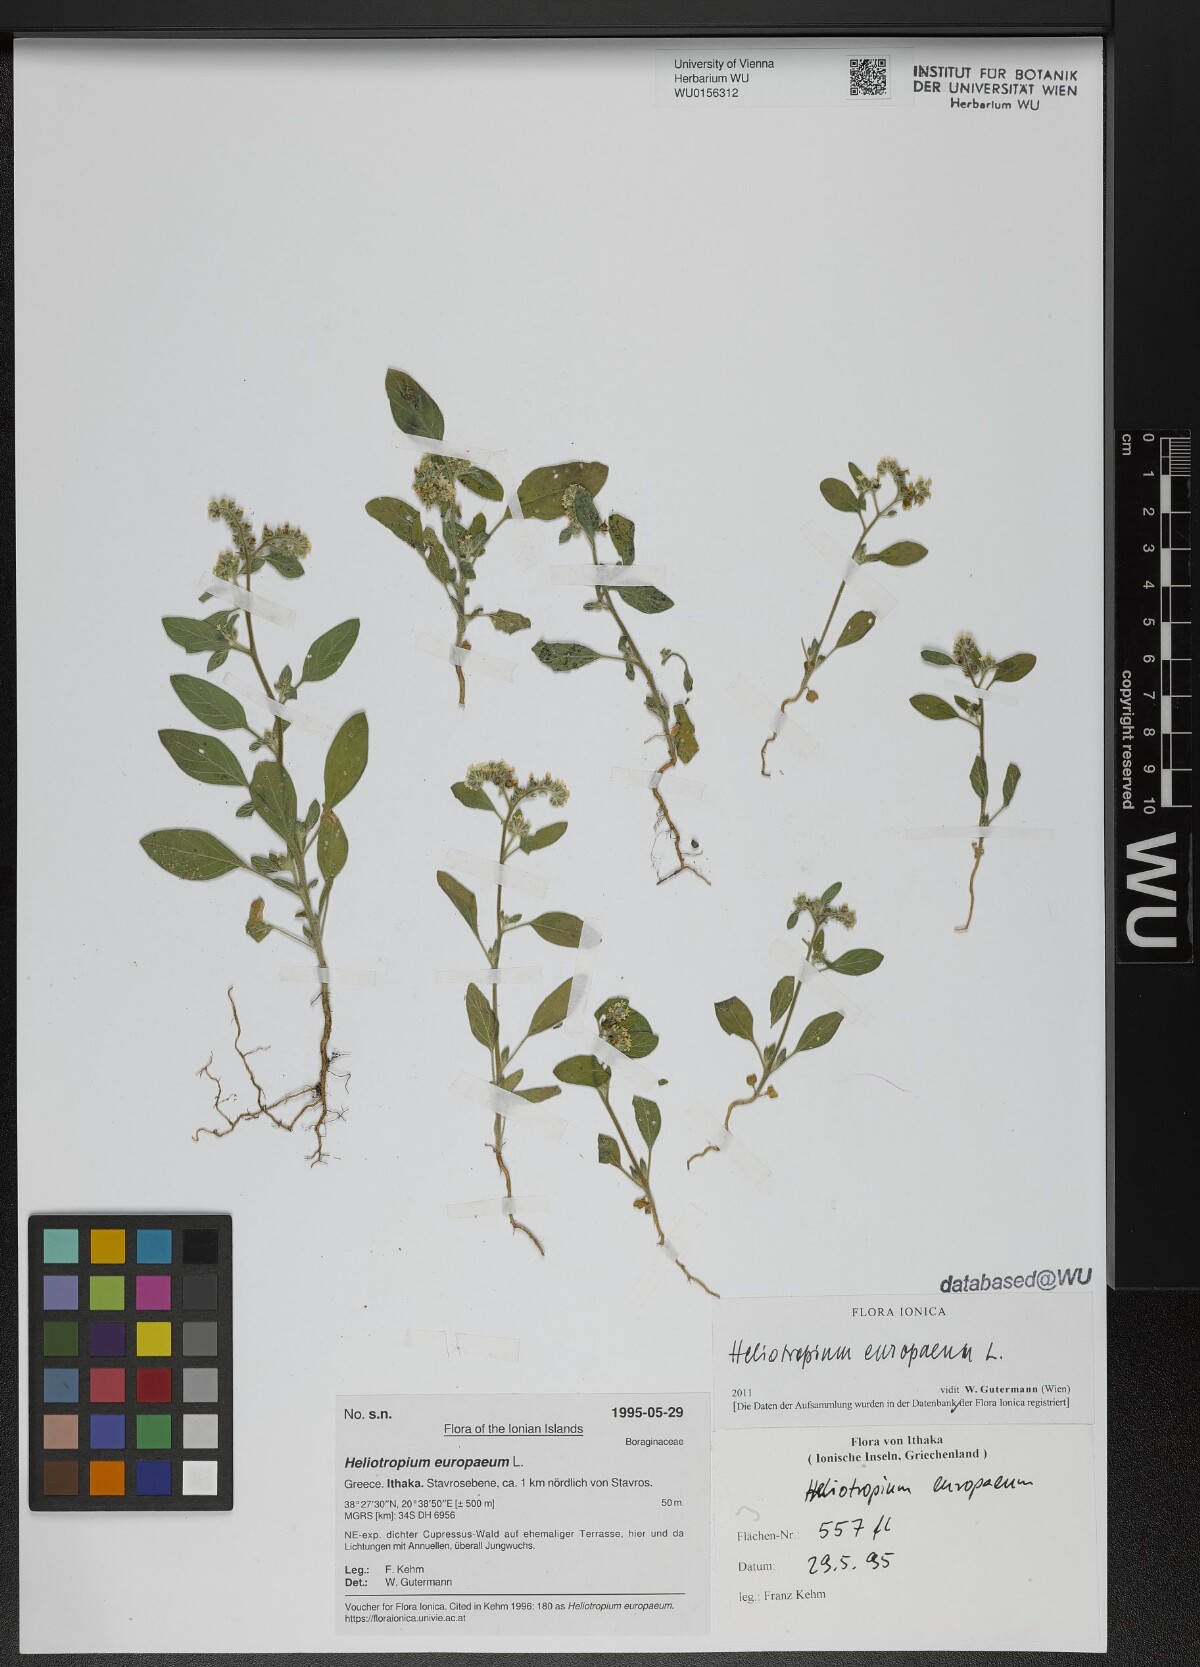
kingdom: Plantae
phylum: Tracheophyta
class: Magnoliopsida
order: Boraginales
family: Heliotropiaceae
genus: Heliotropium
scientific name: Heliotropium europaeum
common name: European heliotrope
